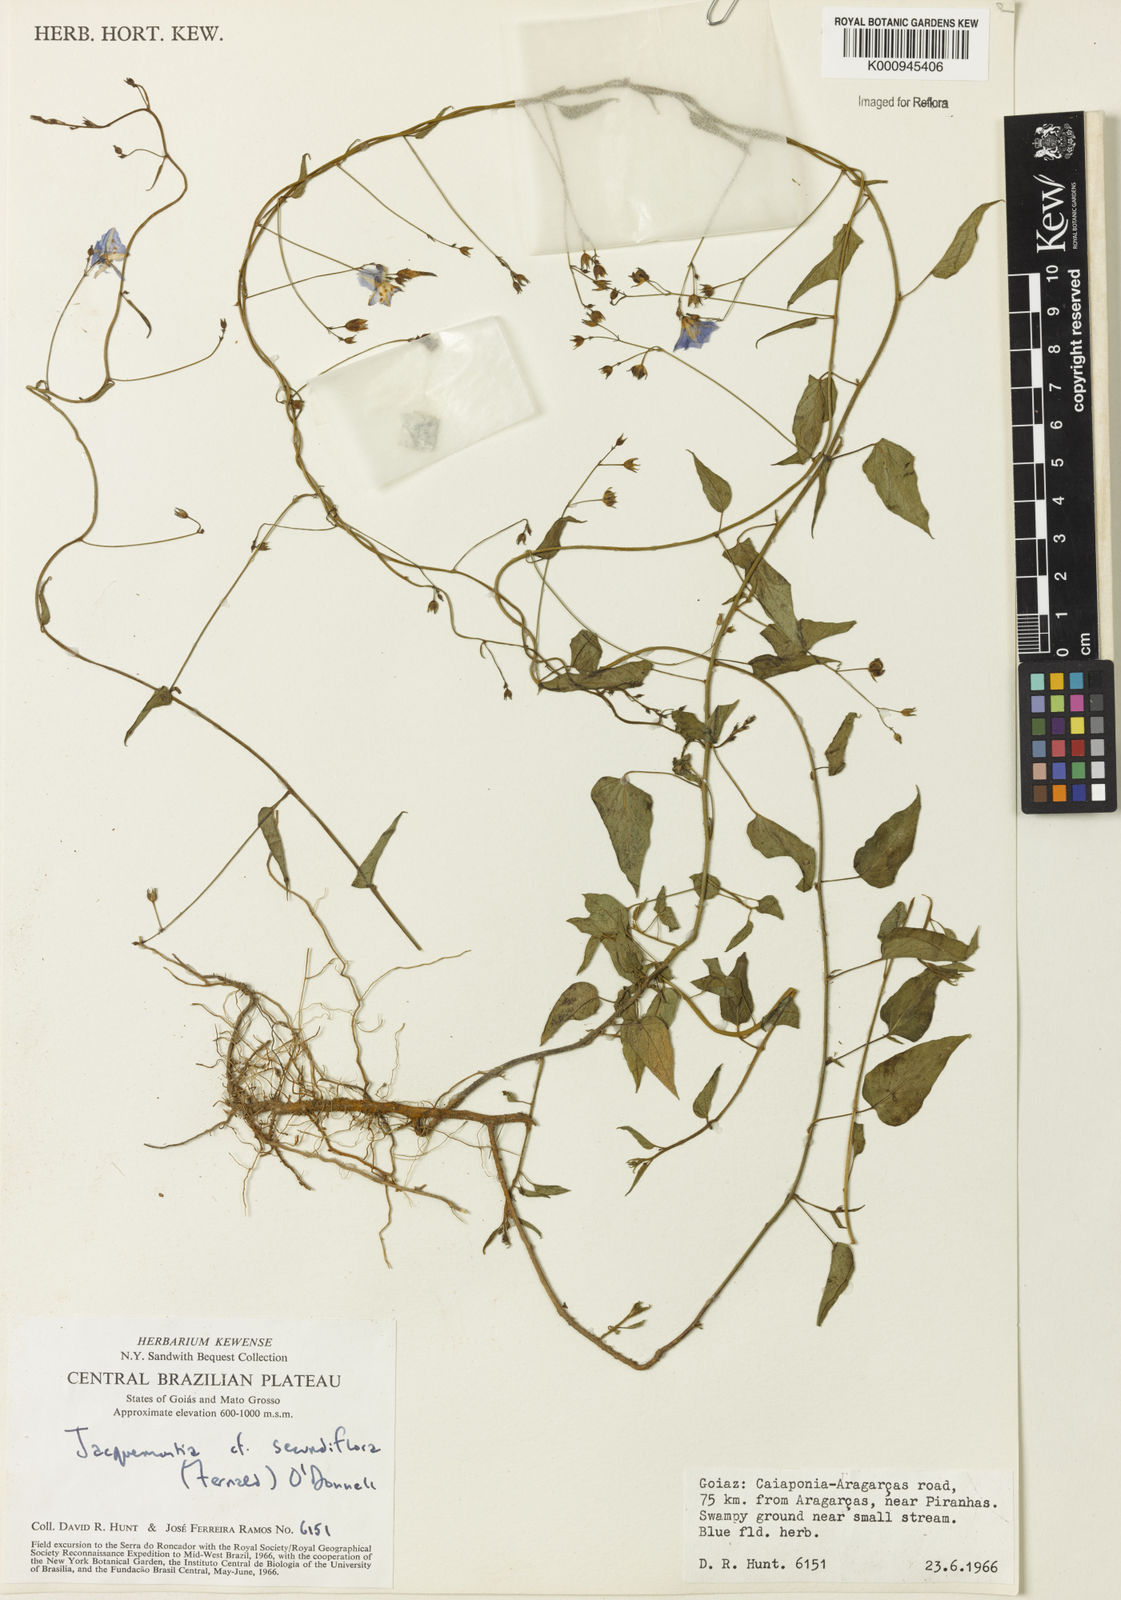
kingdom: Plantae
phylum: Tracheophyta
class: Magnoliopsida
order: Solanales
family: Convolvulaceae
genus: Jacquemontia
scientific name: Jacquemontia agrestis
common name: Midnightblue clustervine
